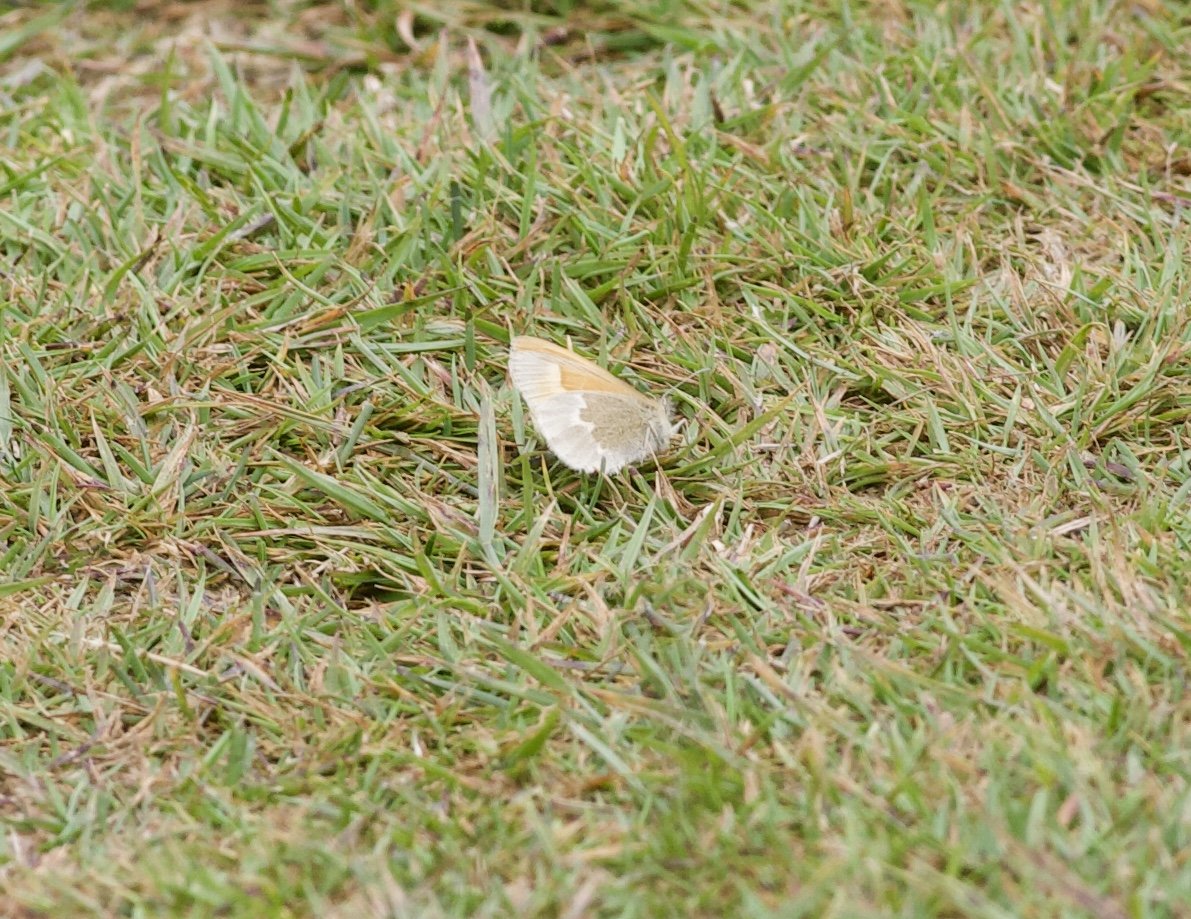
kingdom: Animalia
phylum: Arthropoda
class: Insecta
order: Lepidoptera
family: Nymphalidae
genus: Coenonympha
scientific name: Coenonympha tullia
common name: Large Heath
